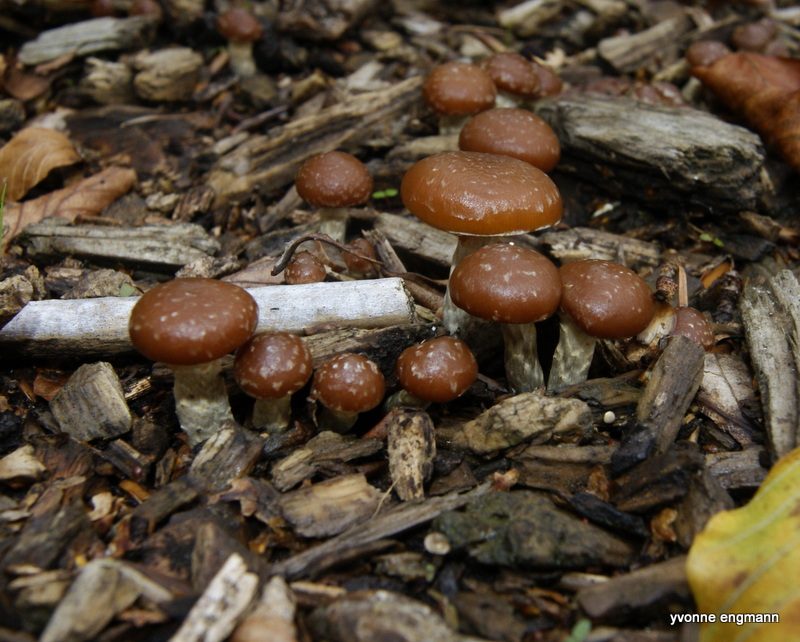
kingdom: Fungi
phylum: Basidiomycota
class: Agaricomycetes
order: Agaricales
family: Hymenogastraceae
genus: Galerina
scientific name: Galerina sideroides
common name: træflis-hjelmhat
